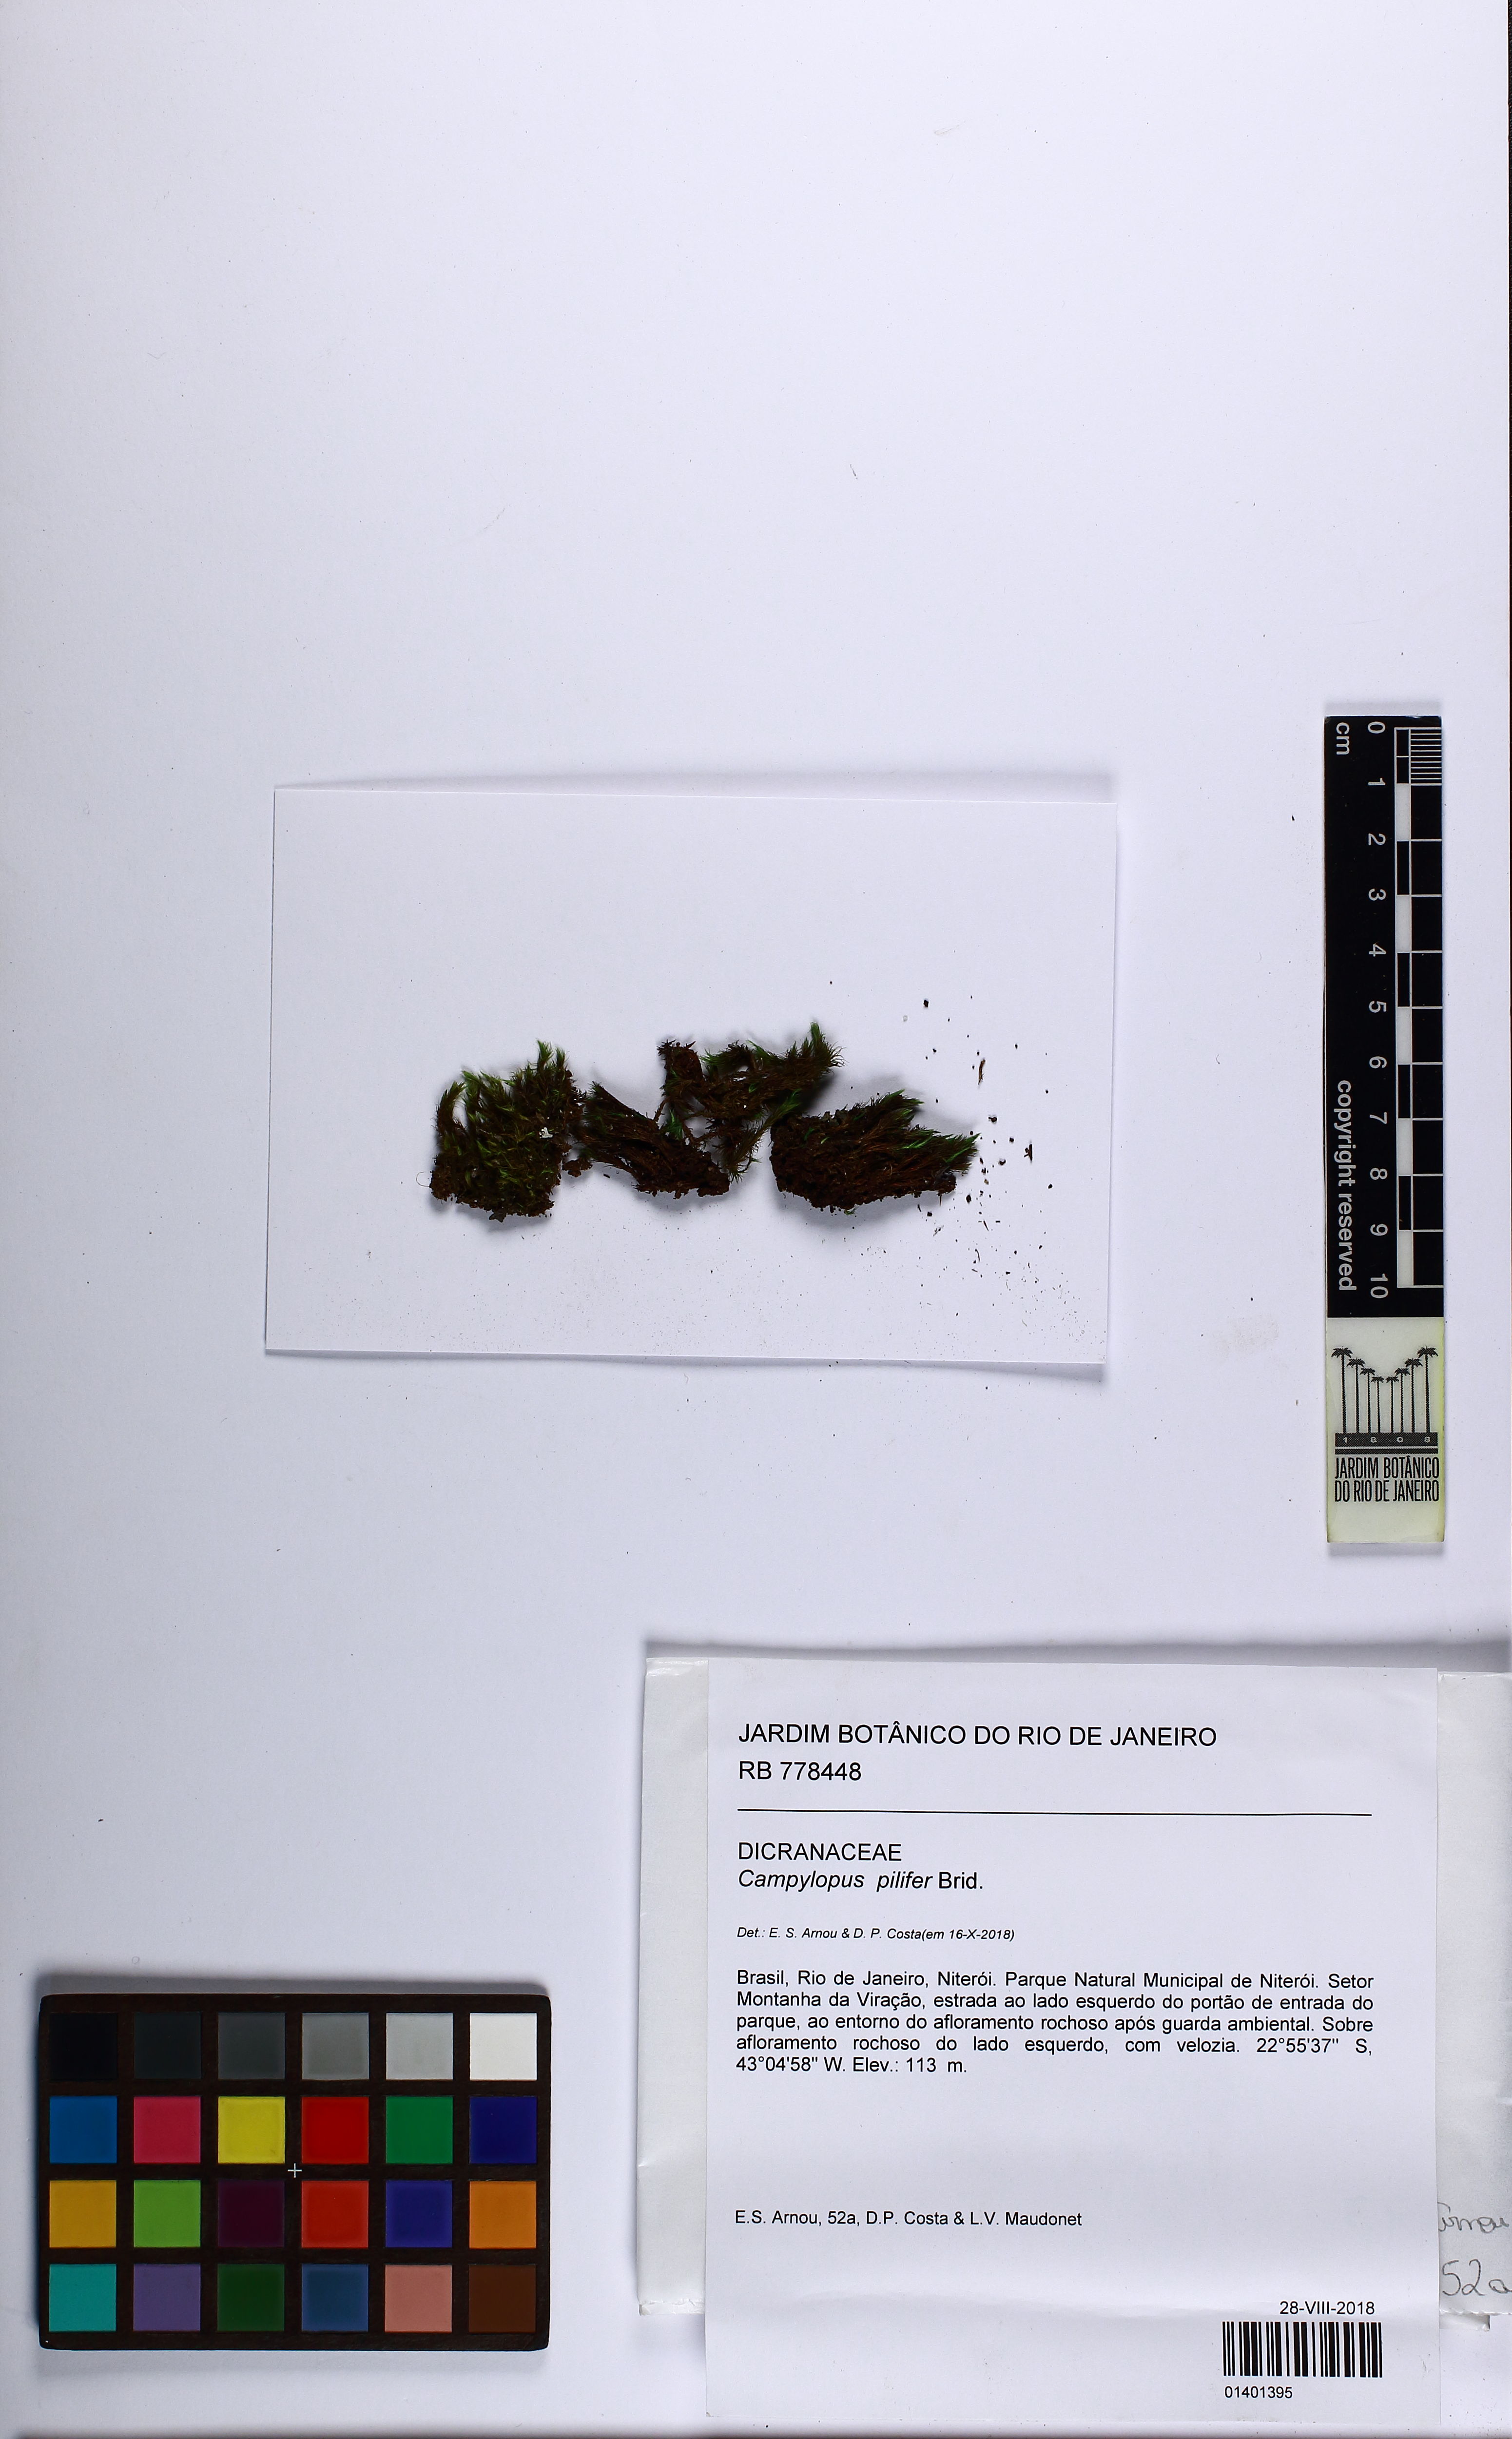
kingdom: Plantae
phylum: Bryophyta
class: Bryopsida
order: Dicranales
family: Leucobryaceae
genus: Campylopus
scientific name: Campylopus pilifer
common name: Campylopus moss
